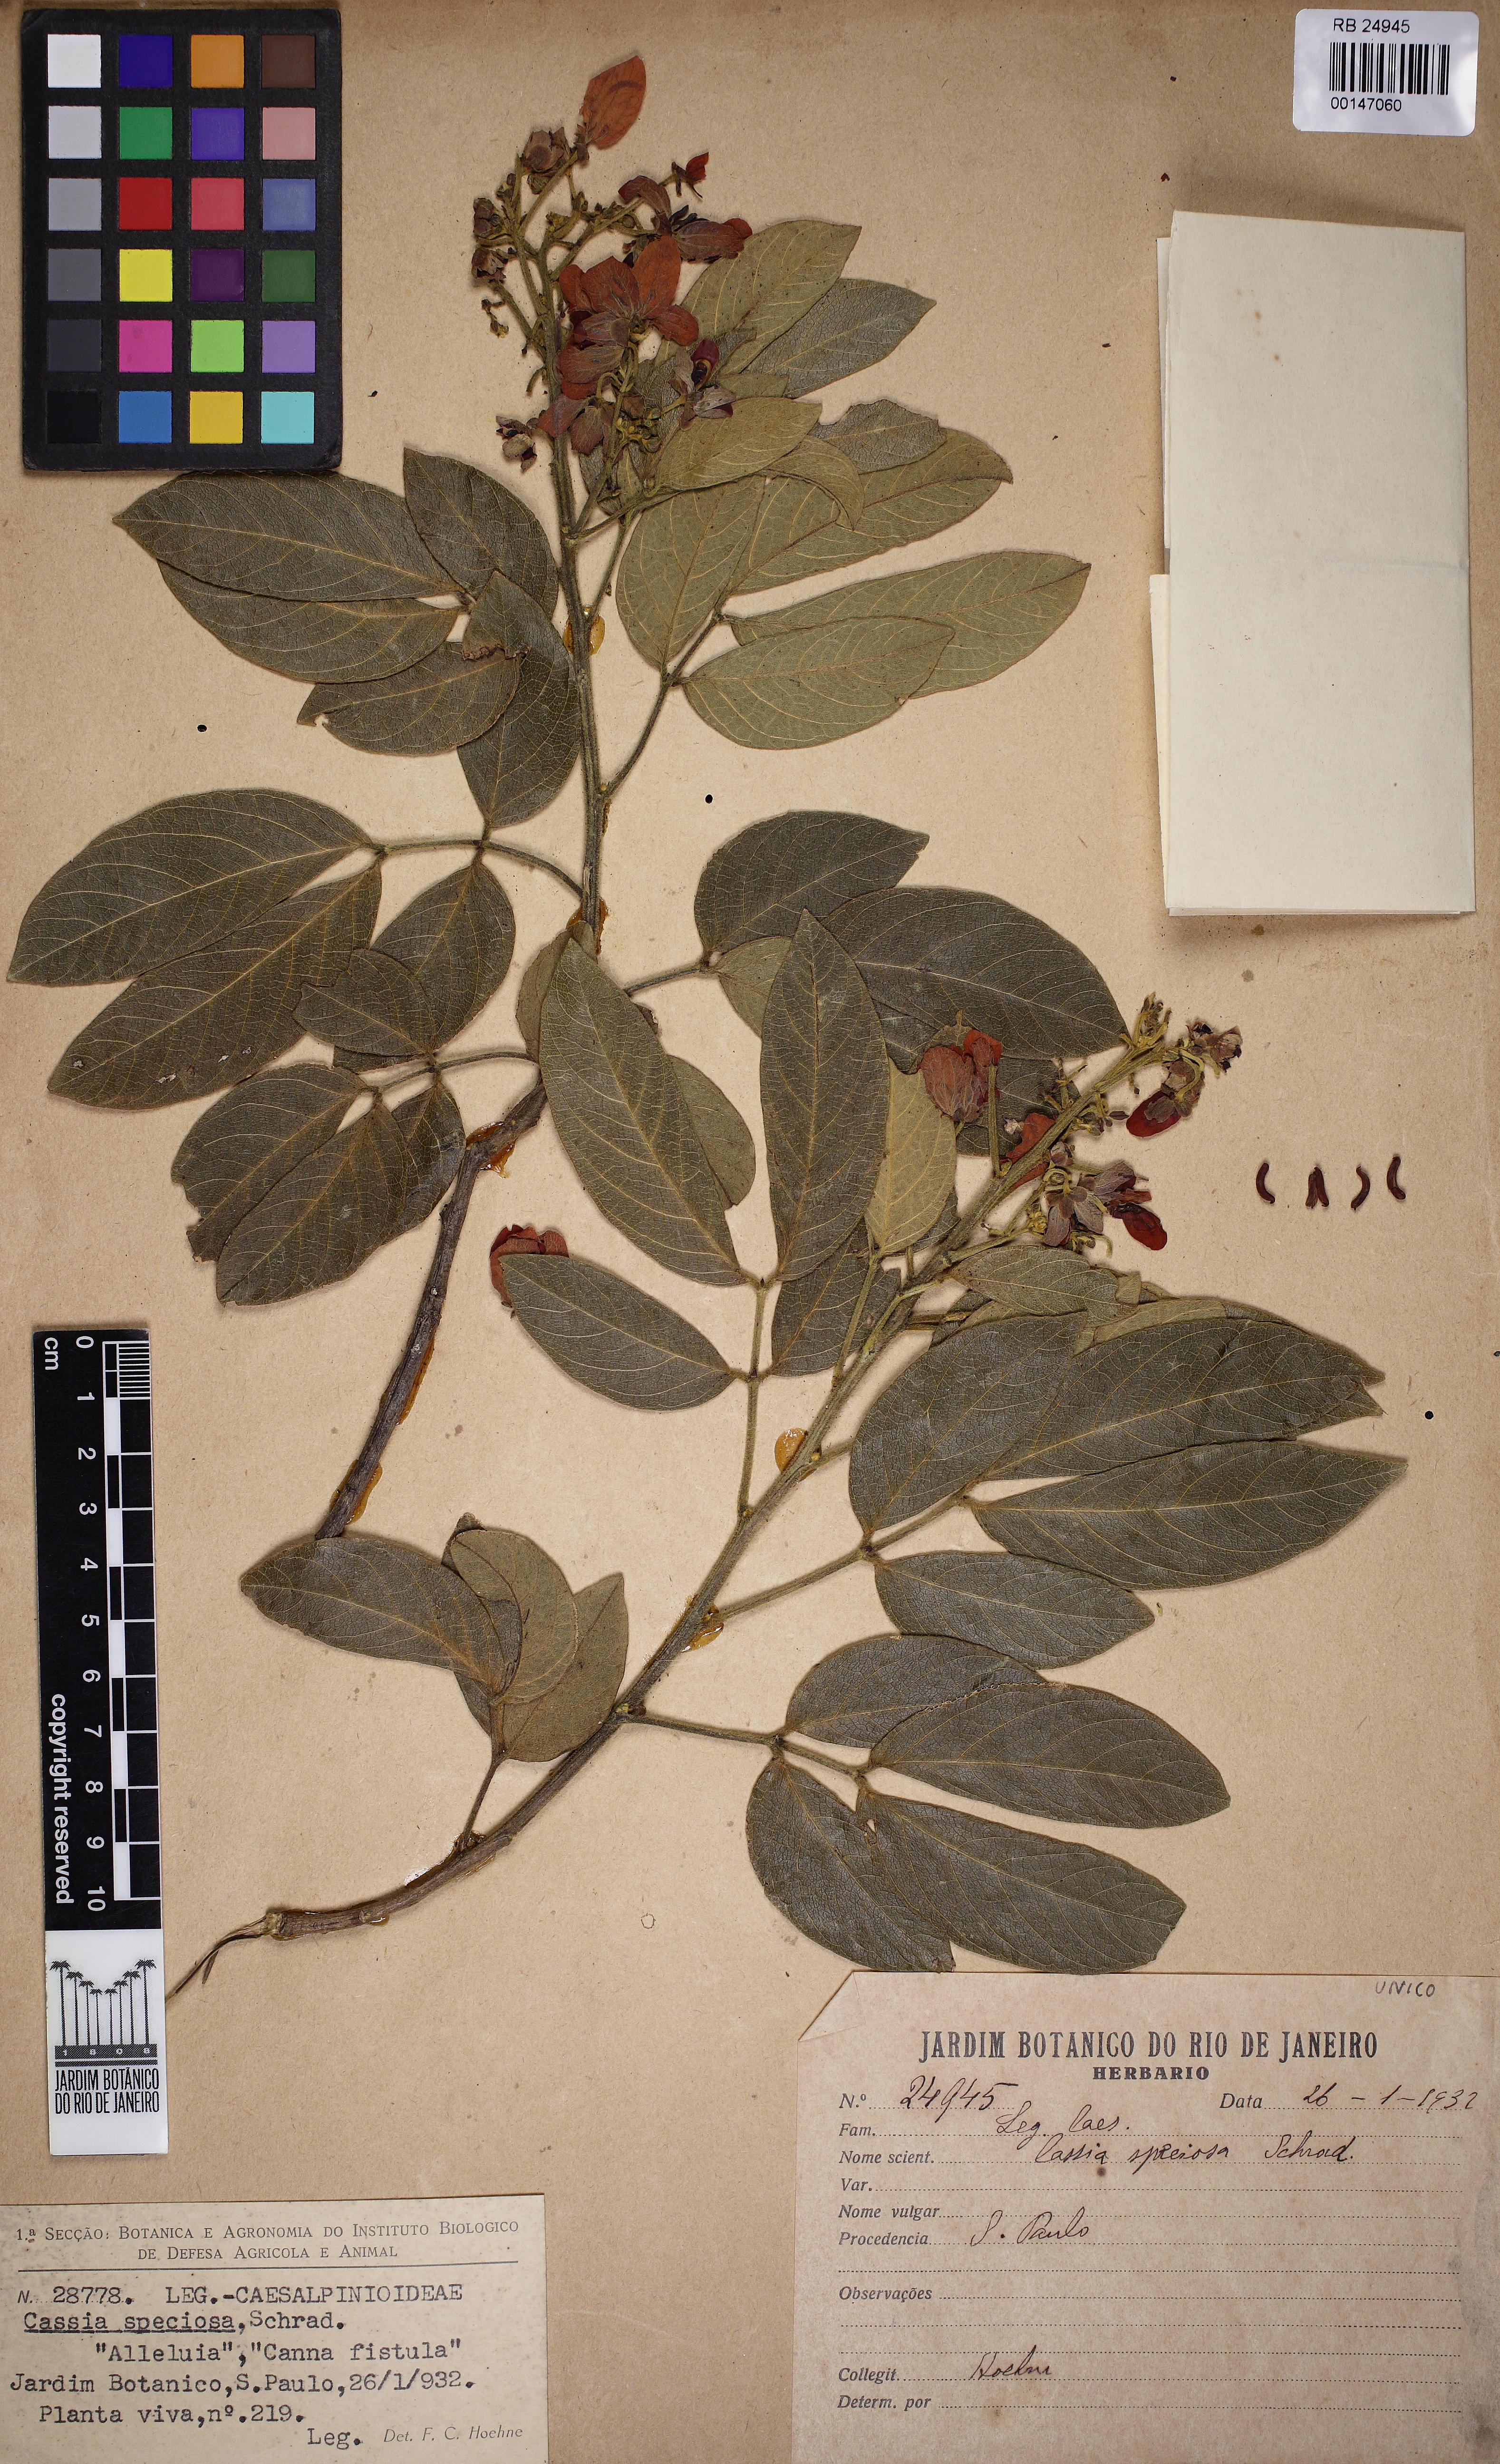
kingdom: Plantae
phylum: Tracheophyta
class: Magnoliopsida
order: Fabales
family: Fabaceae
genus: Senna
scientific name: Senna macranthera
